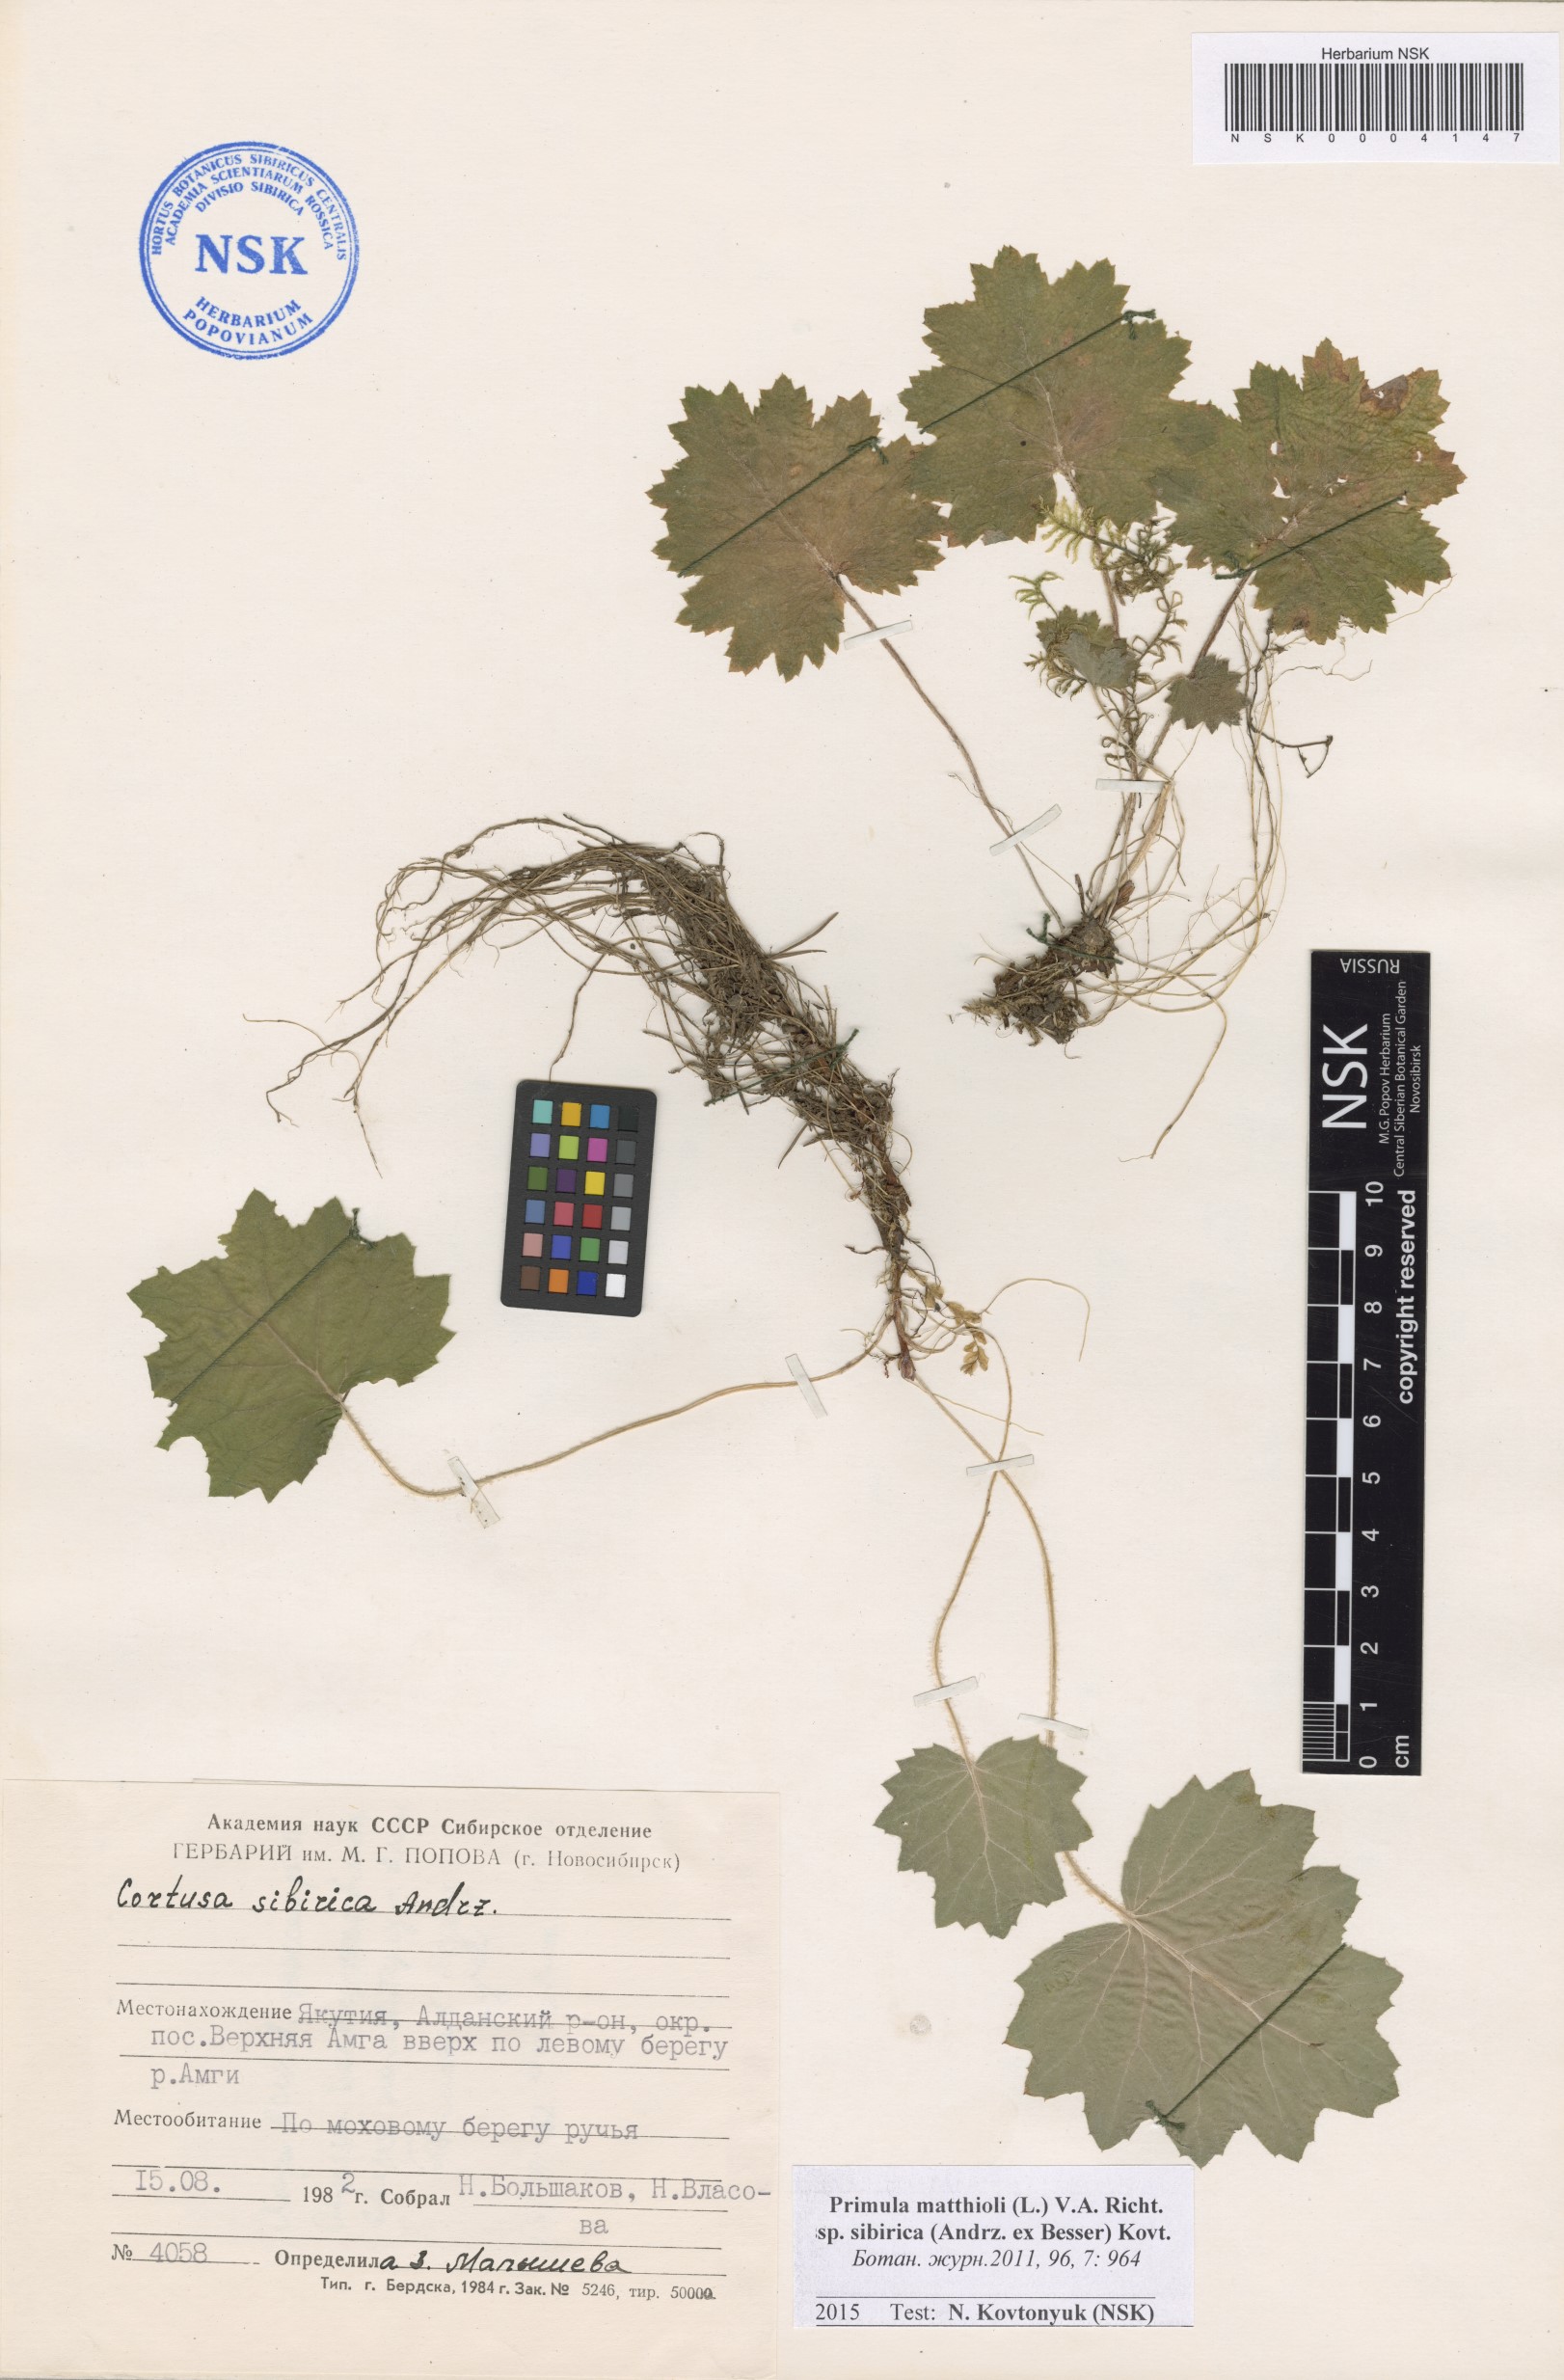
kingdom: Plantae
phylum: Tracheophyta
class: Magnoliopsida
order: Ericales
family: Primulaceae
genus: Primula
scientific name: Primula matthioli
